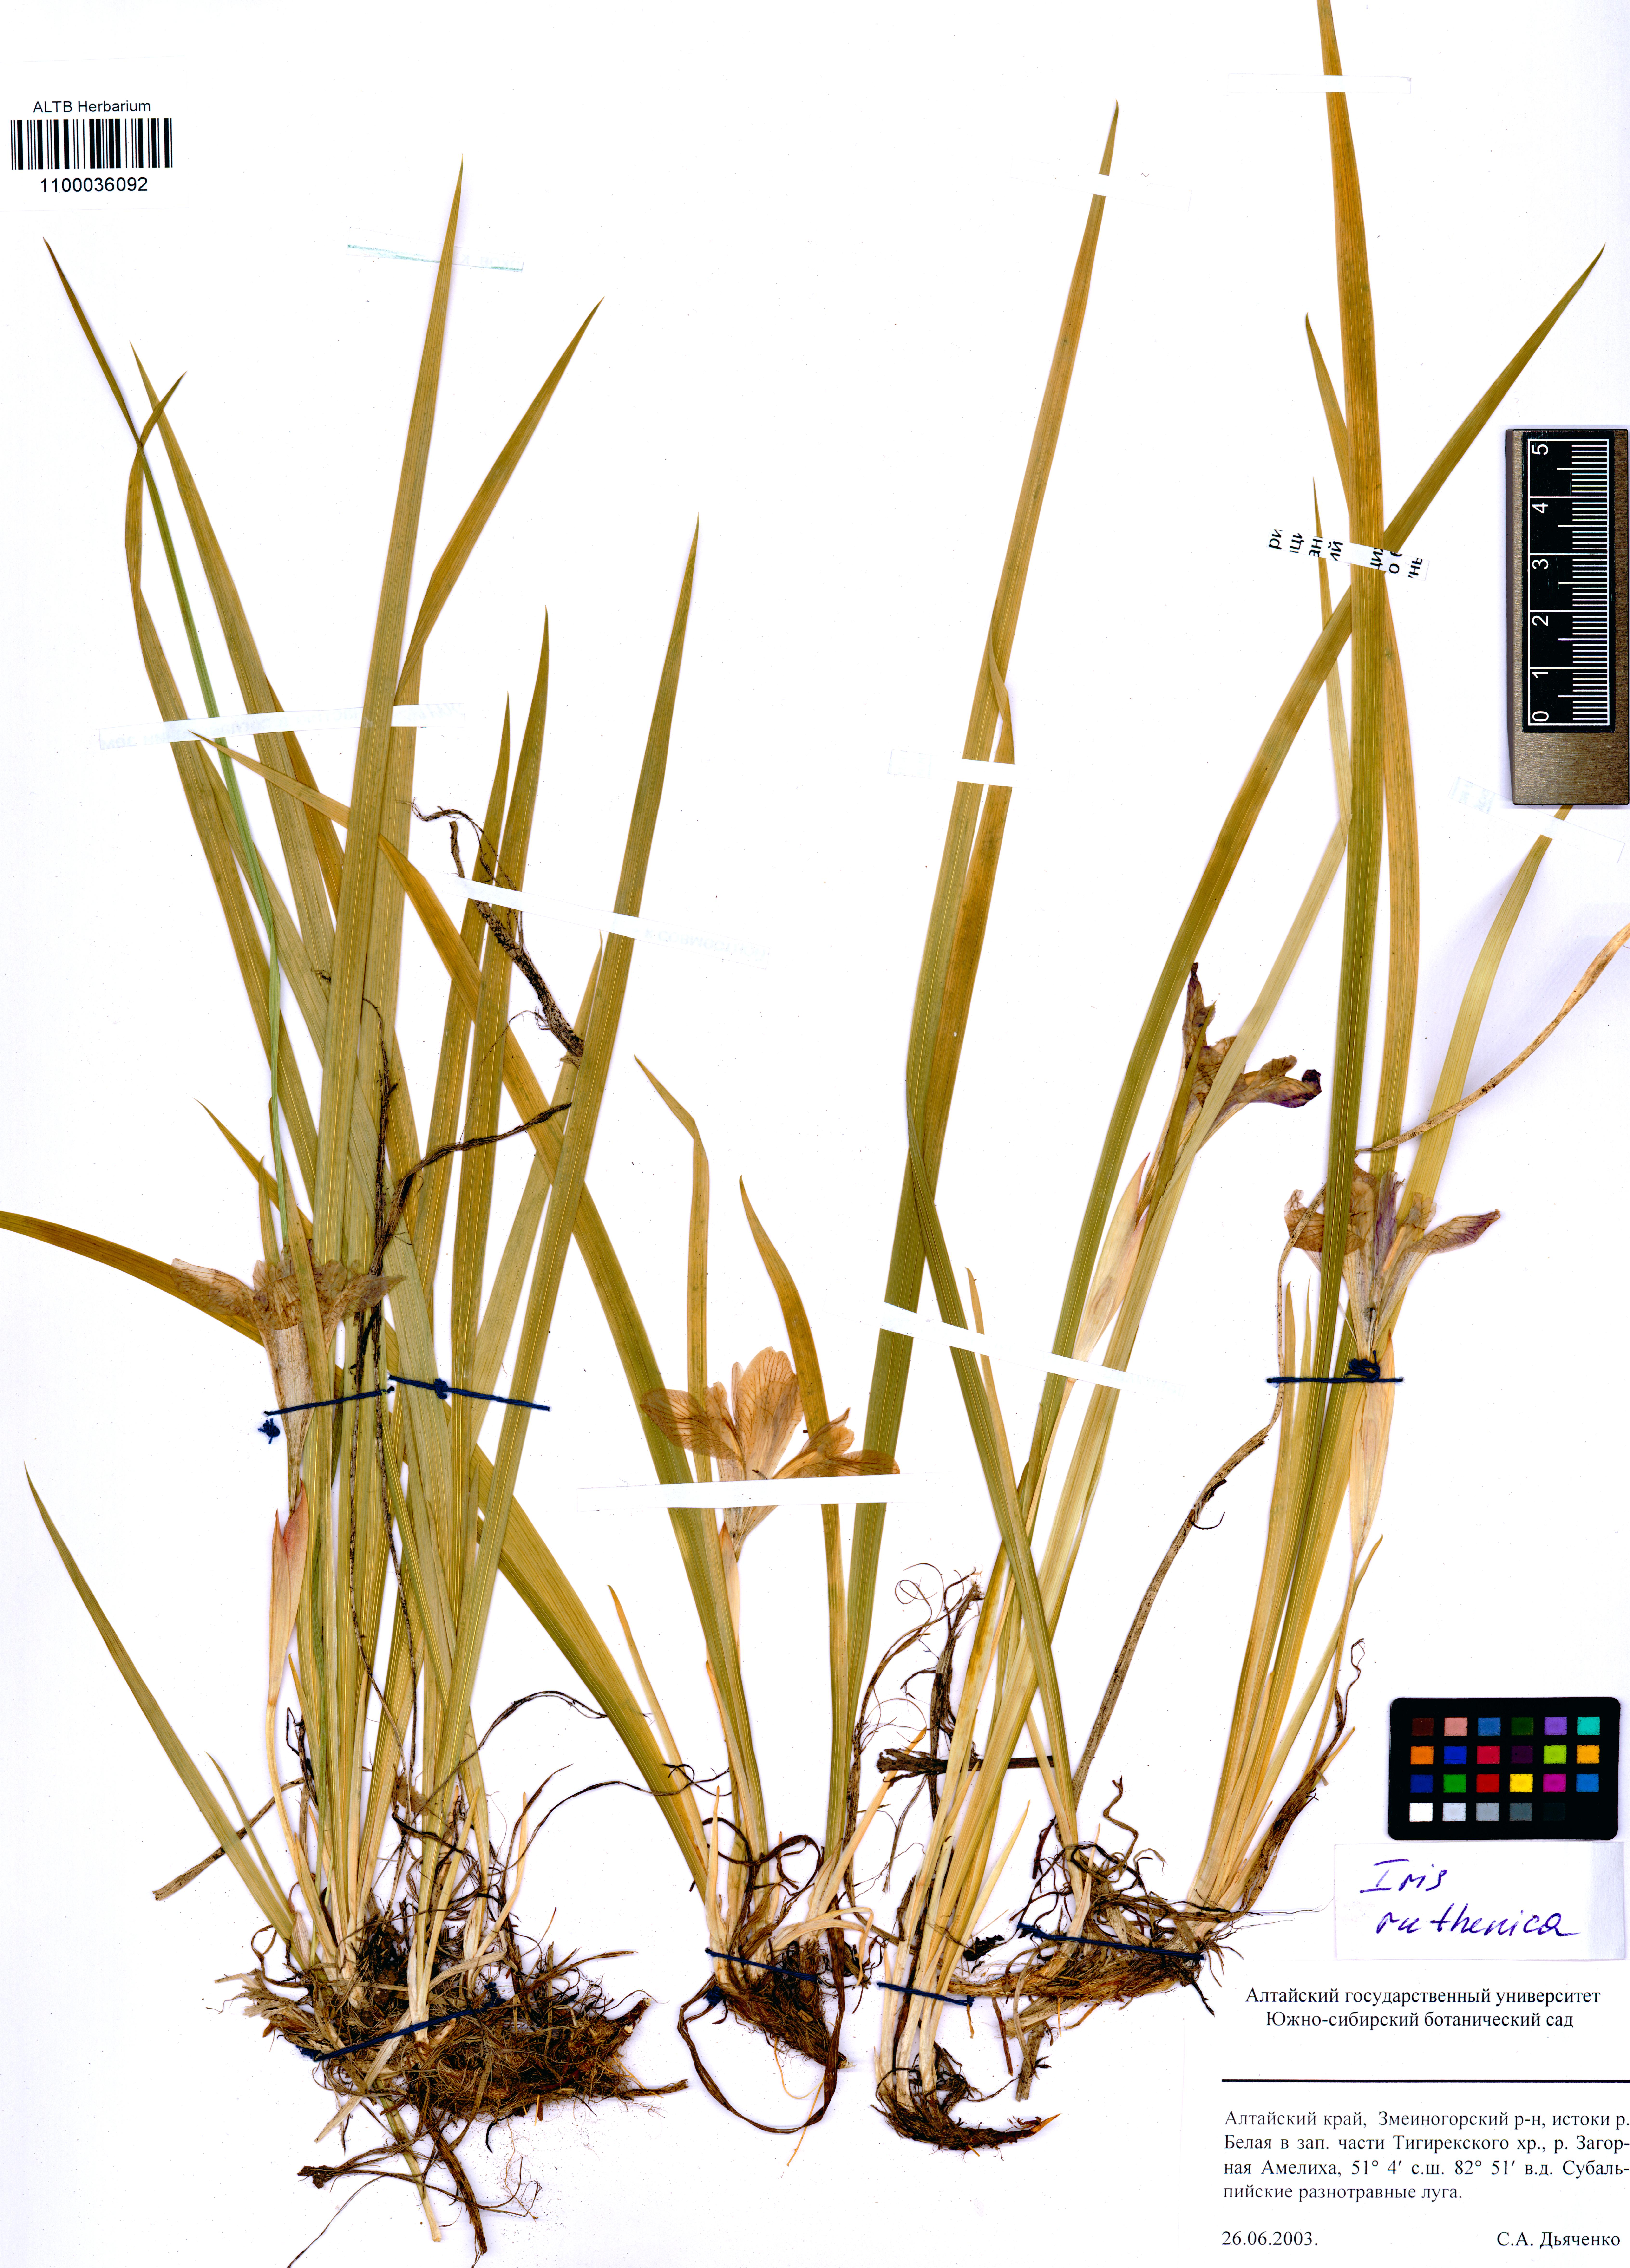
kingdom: Plantae
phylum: Tracheophyta
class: Liliopsida
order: Asparagales
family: Iridaceae
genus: Iris
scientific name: Iris ruthenica
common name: Purple-bract iris
